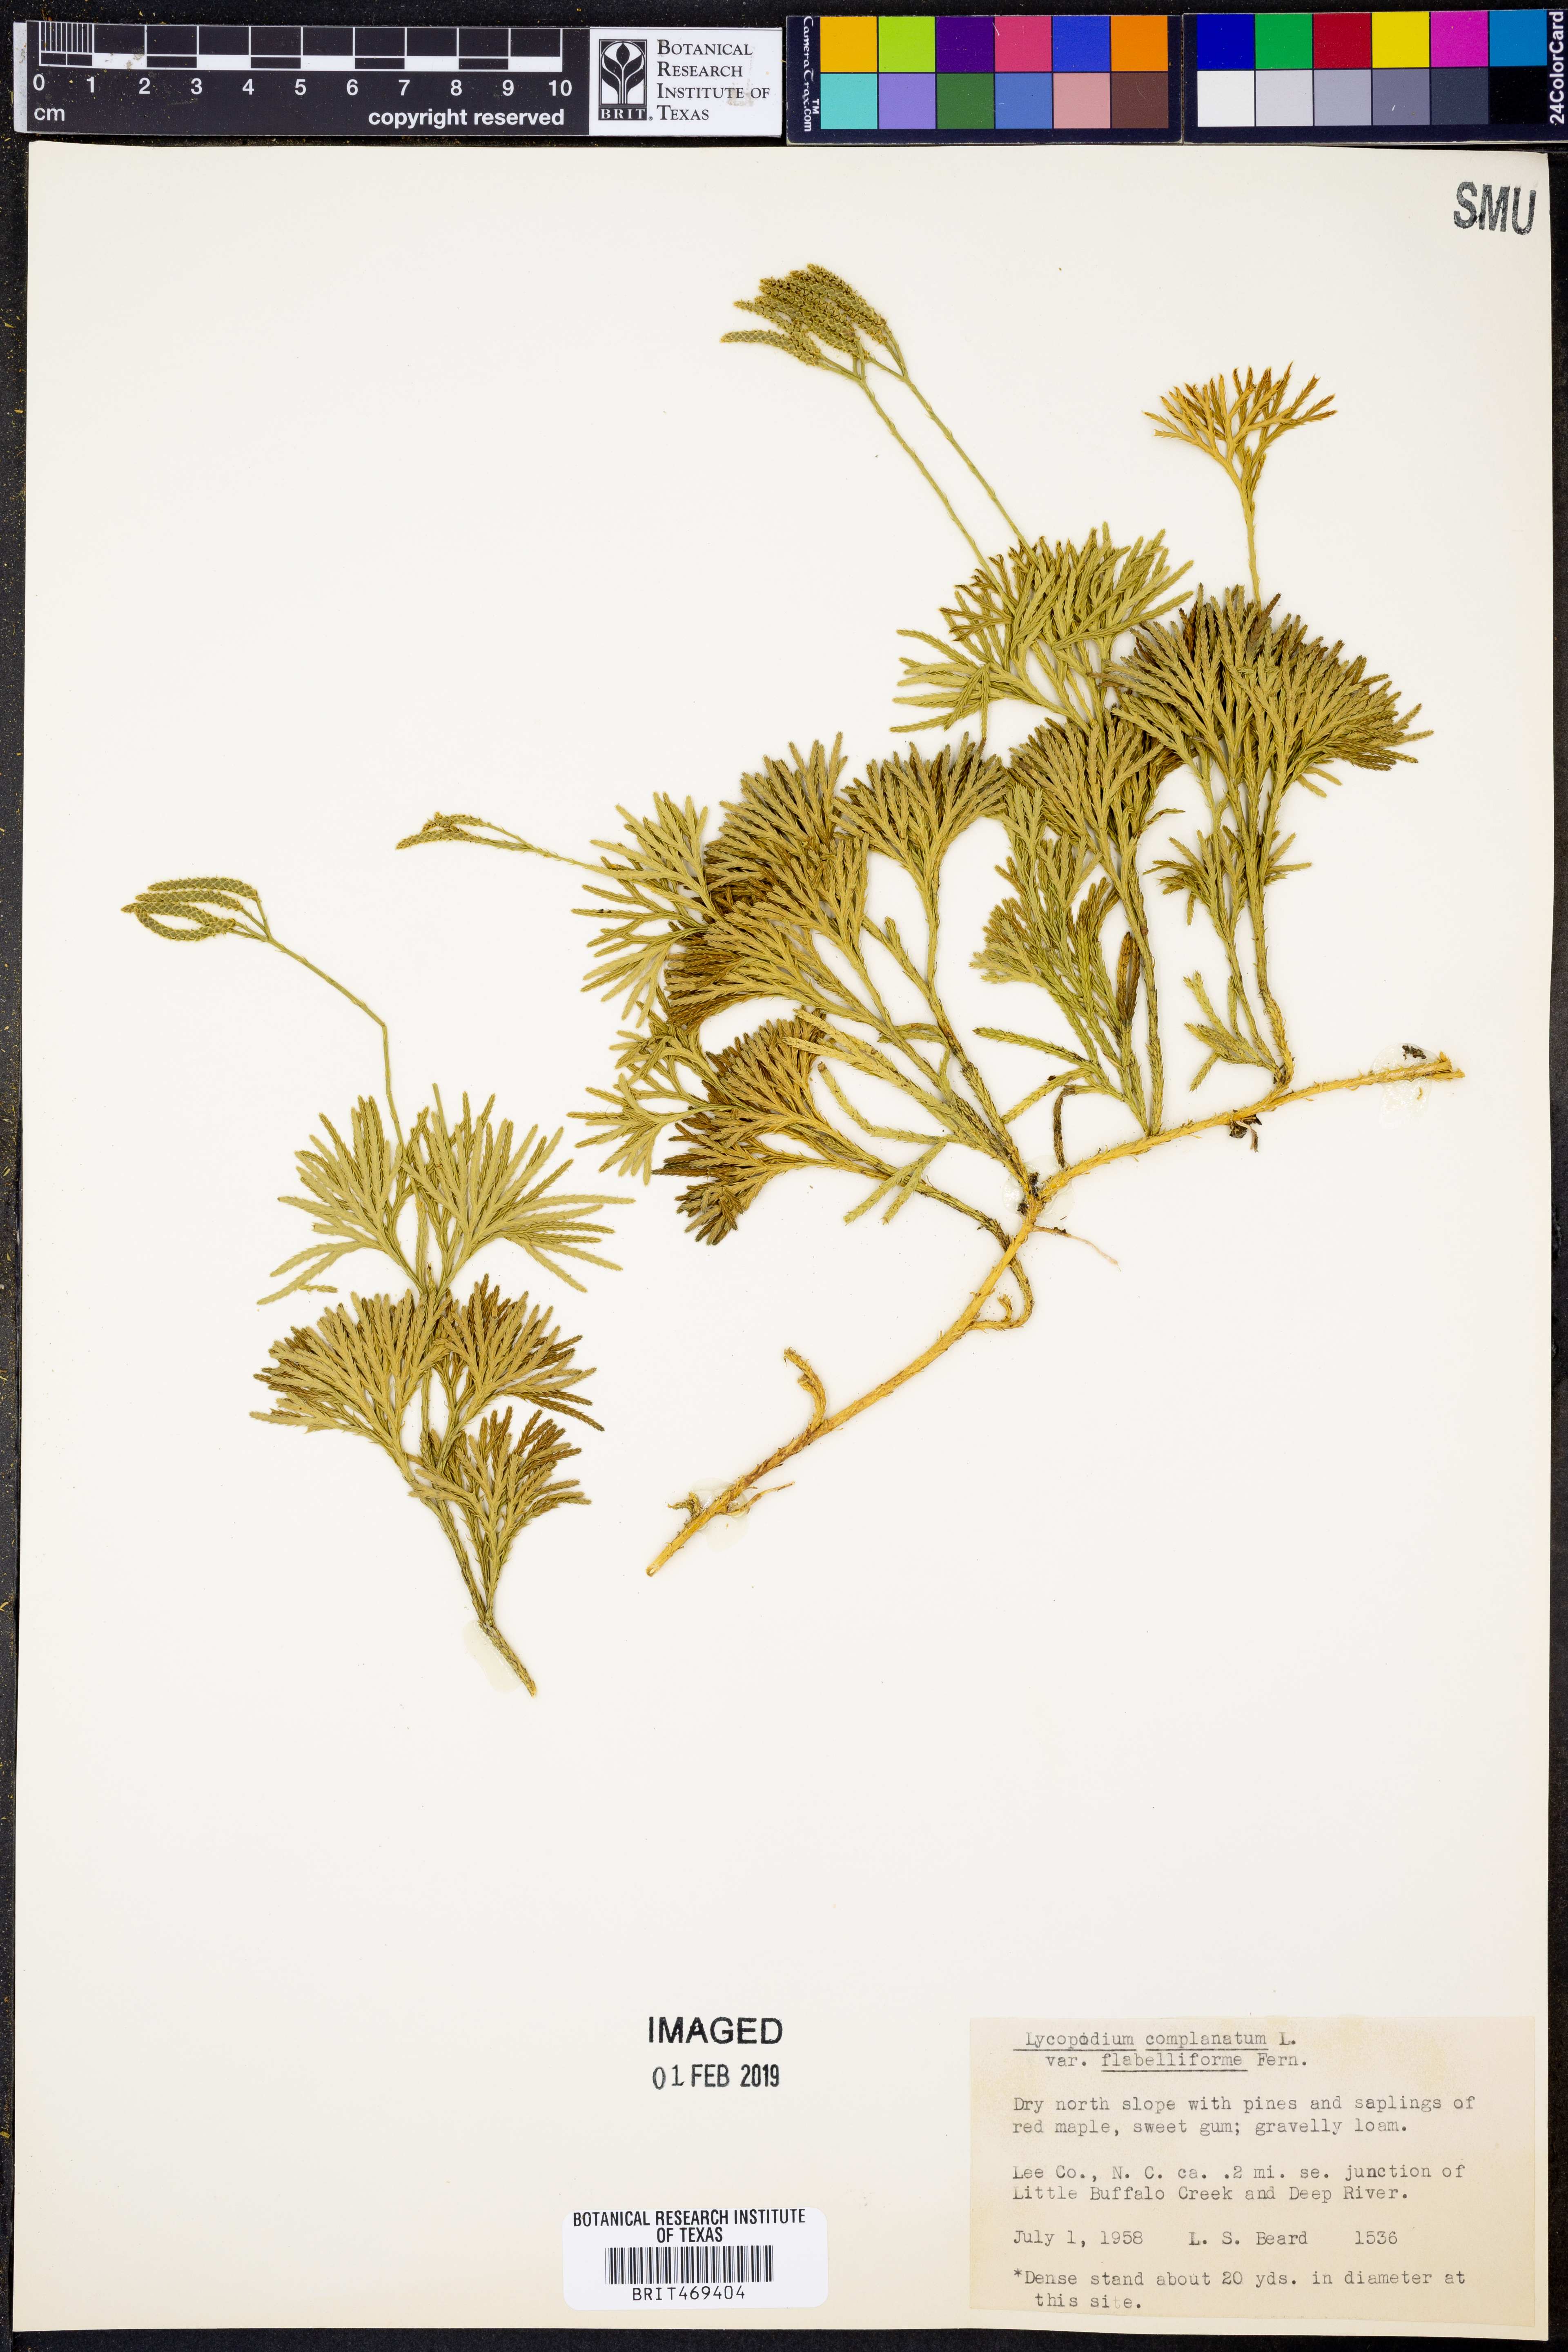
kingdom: Plantae
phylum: Tracheophyta
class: Lycopodiopsida
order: Lycopodiales
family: Lycopodiaceae
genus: Diphasiastrum
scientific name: Diphasiastrum digitatum
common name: Southern running-pine
